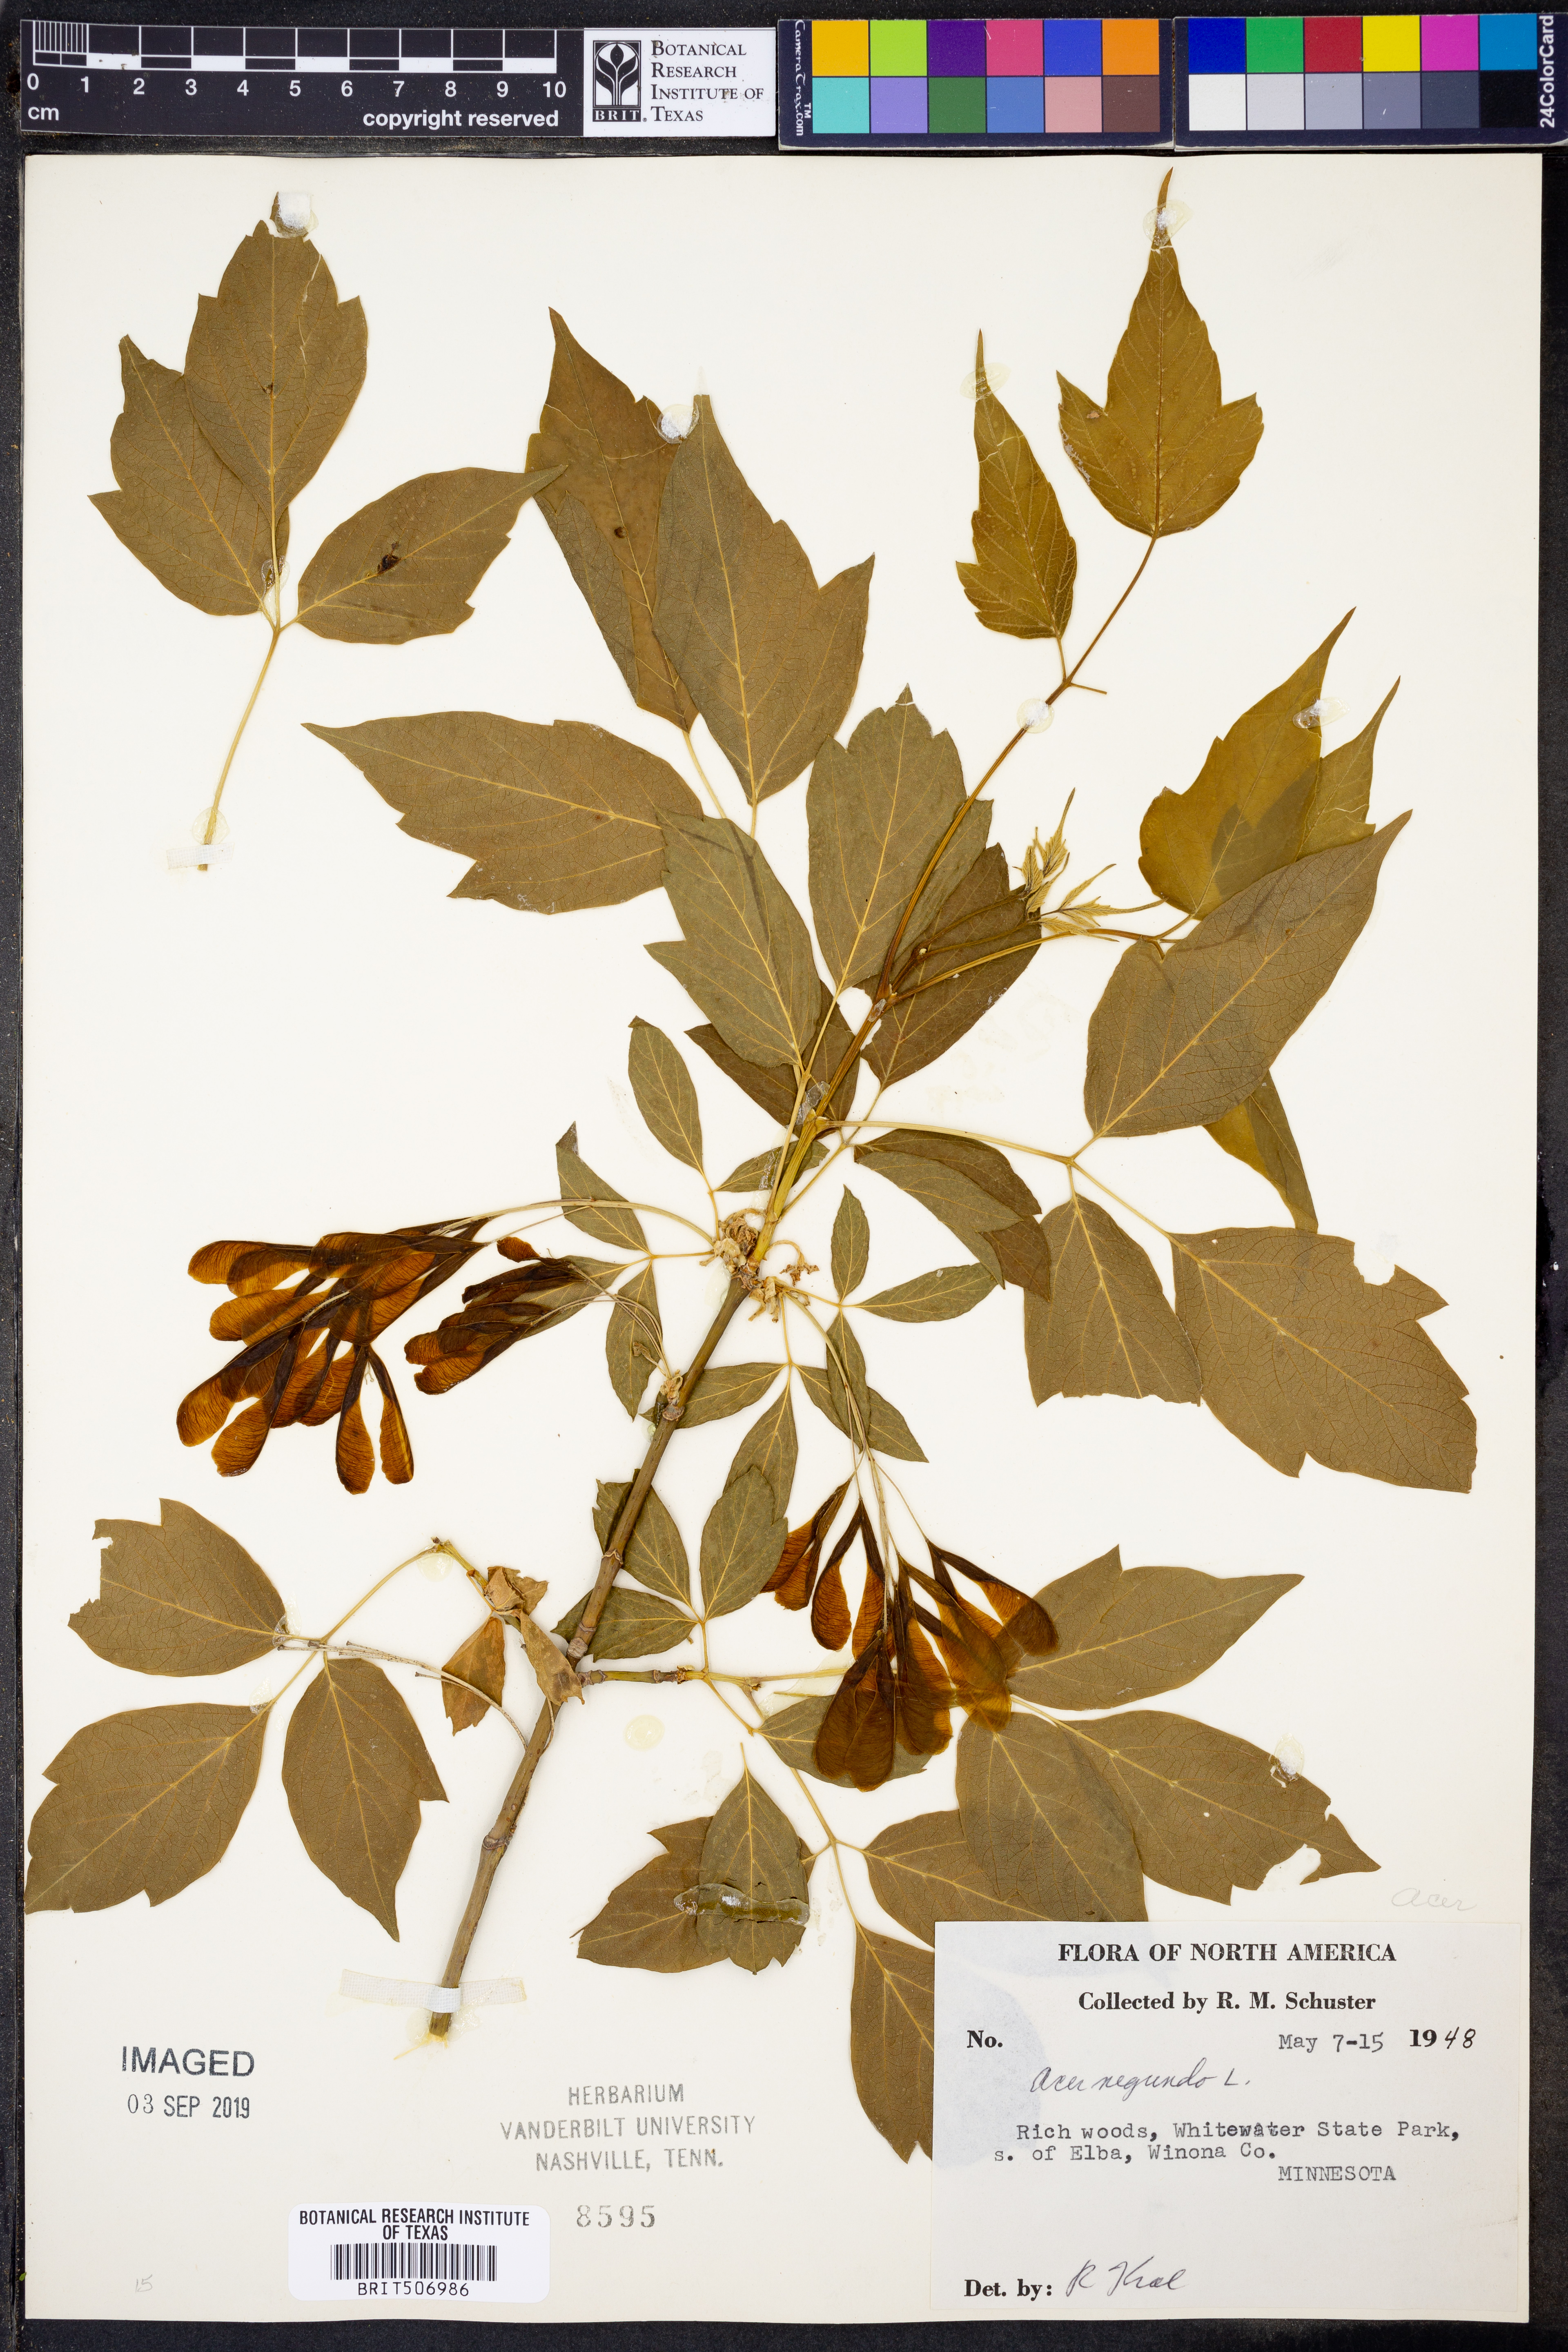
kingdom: Plantae
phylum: Tracheophyta
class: Magnoliopsida
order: Sapindales
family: Sapindaceae
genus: Acer
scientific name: Acer negundo
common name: Ashleaf maple
